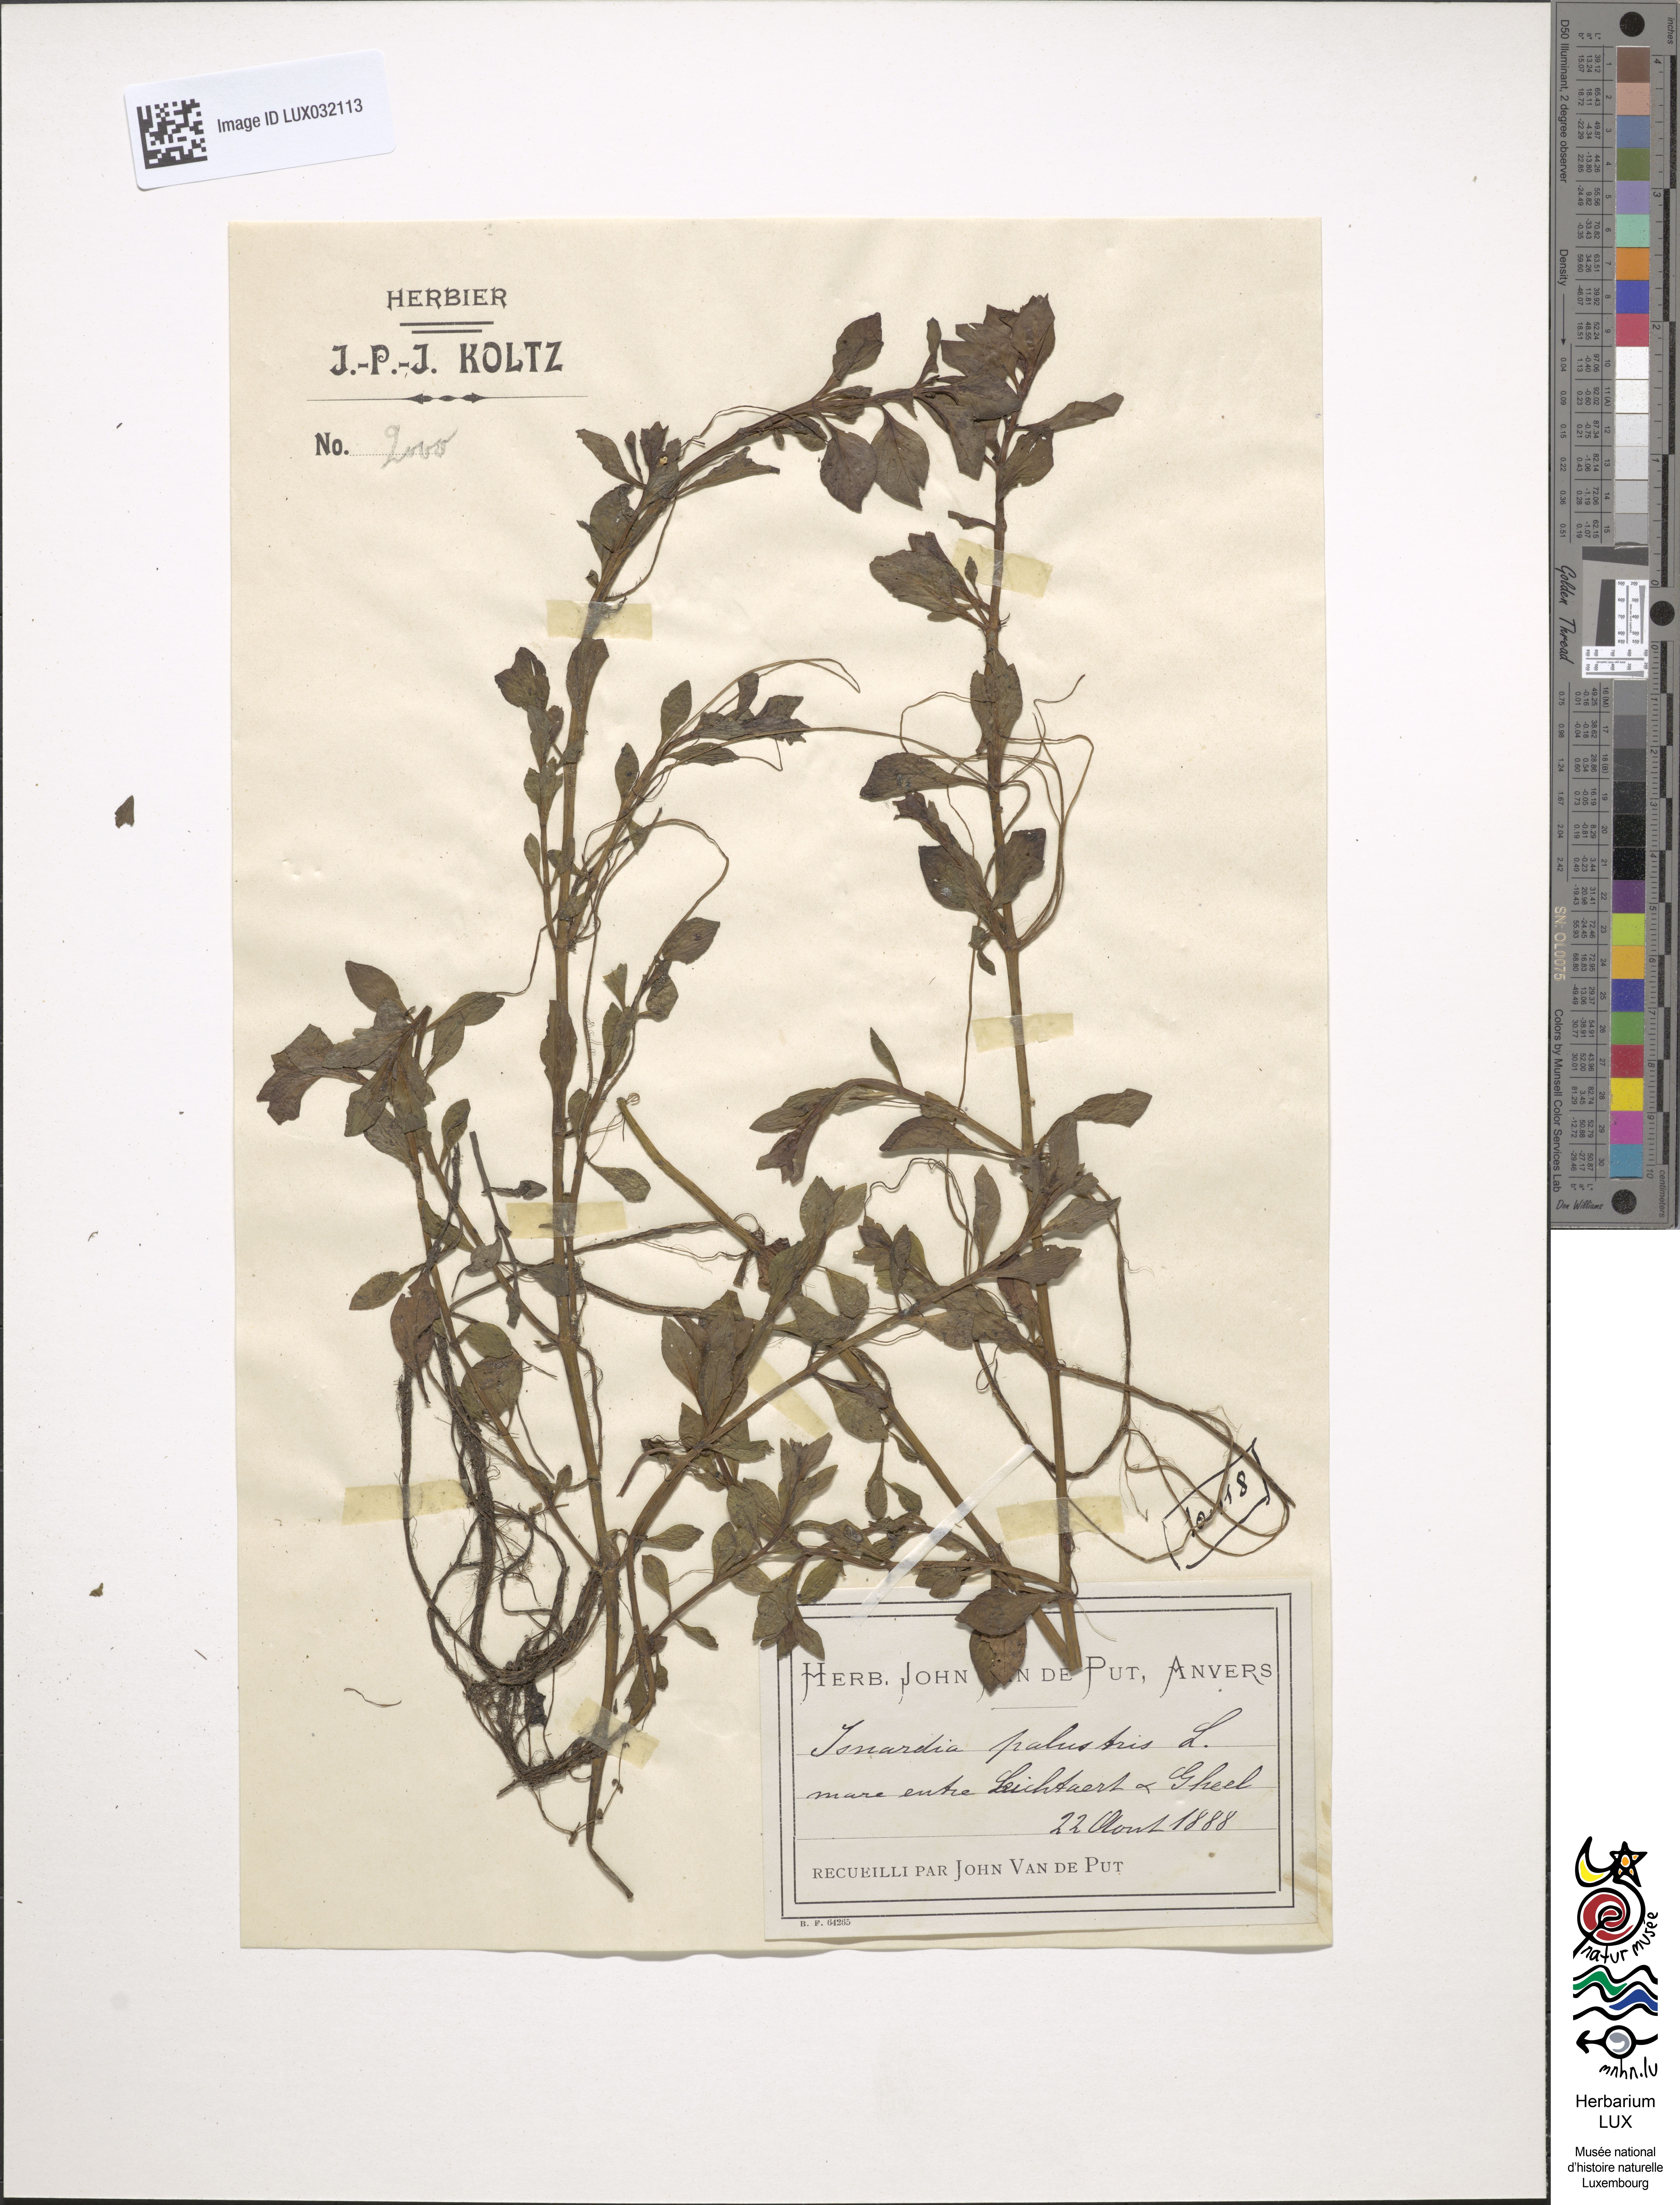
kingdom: Plantae
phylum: Tracheophyta
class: Magnoliopsida
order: Myrtales
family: Onagraceae
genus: Ludwigia
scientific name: Ludwigia palustris
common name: Hampshire-purslane
